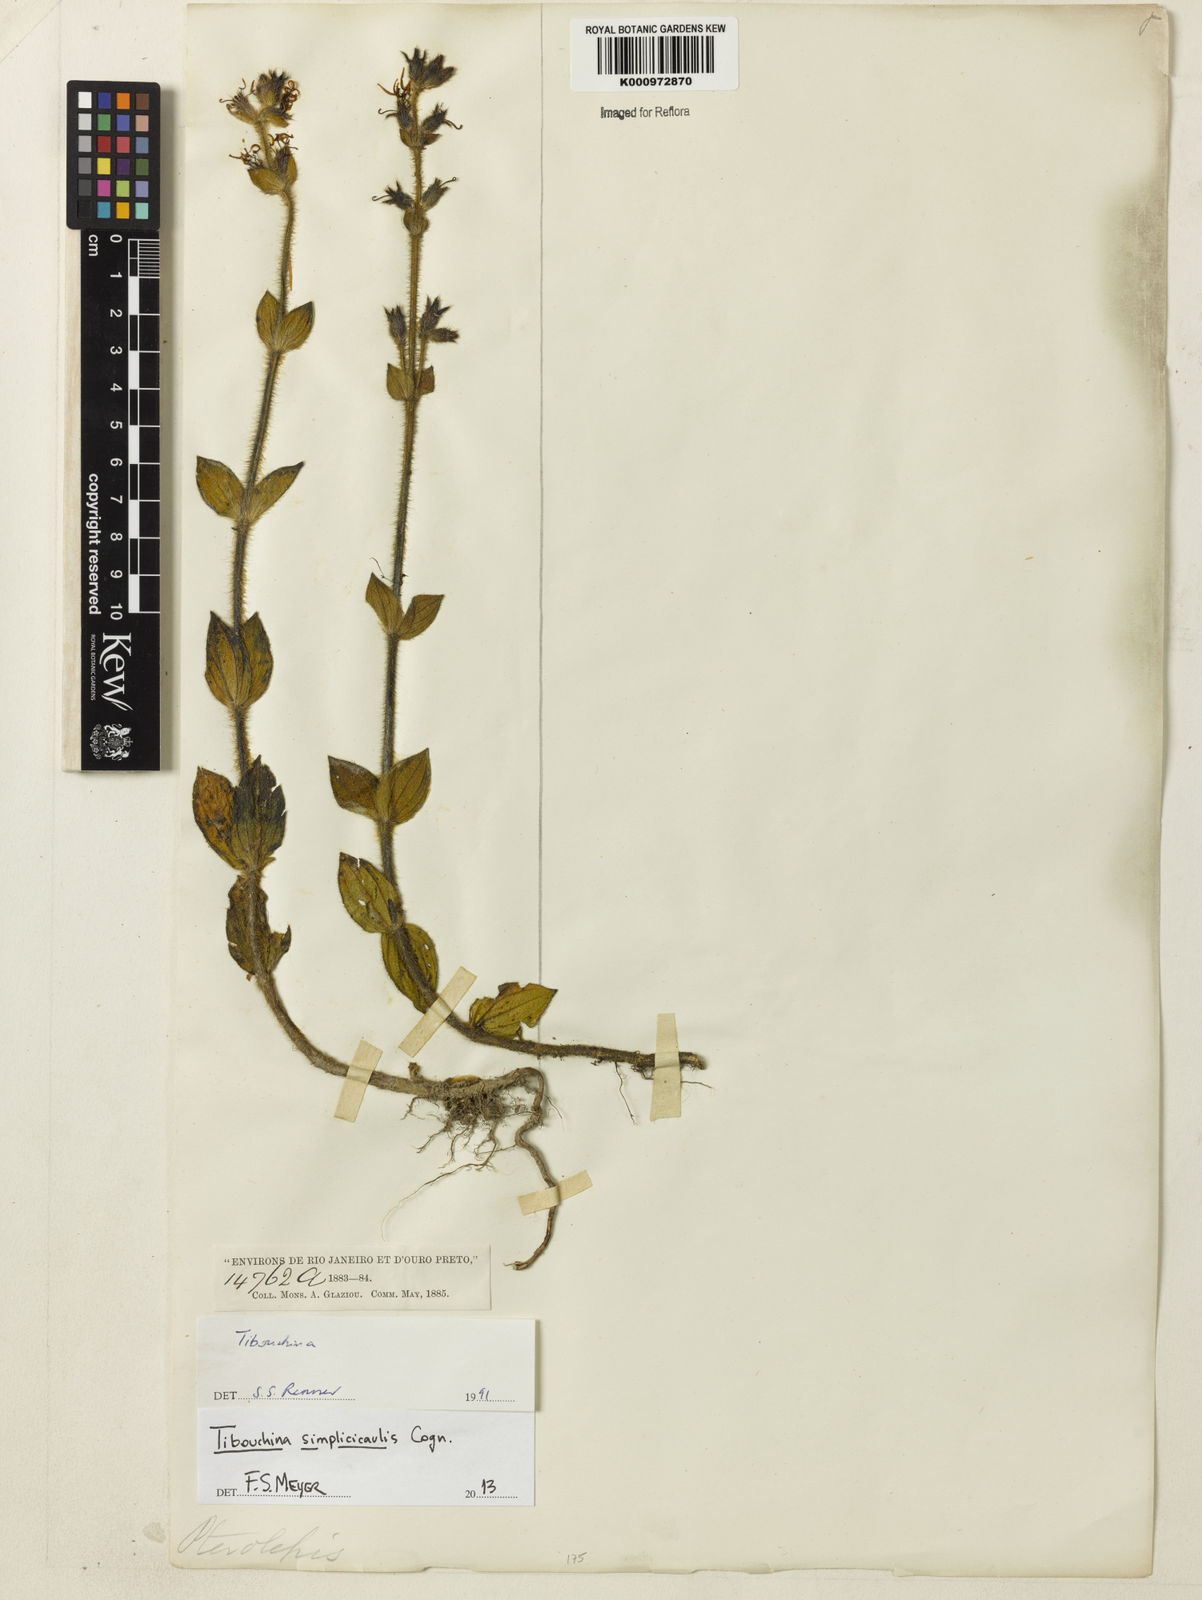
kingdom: Plantae
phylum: Tracheophyta
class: Magnoliopsida
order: Myrtales
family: Melastomataceae
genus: Chaetogastra
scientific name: Chaetogastra simplicicaulis
